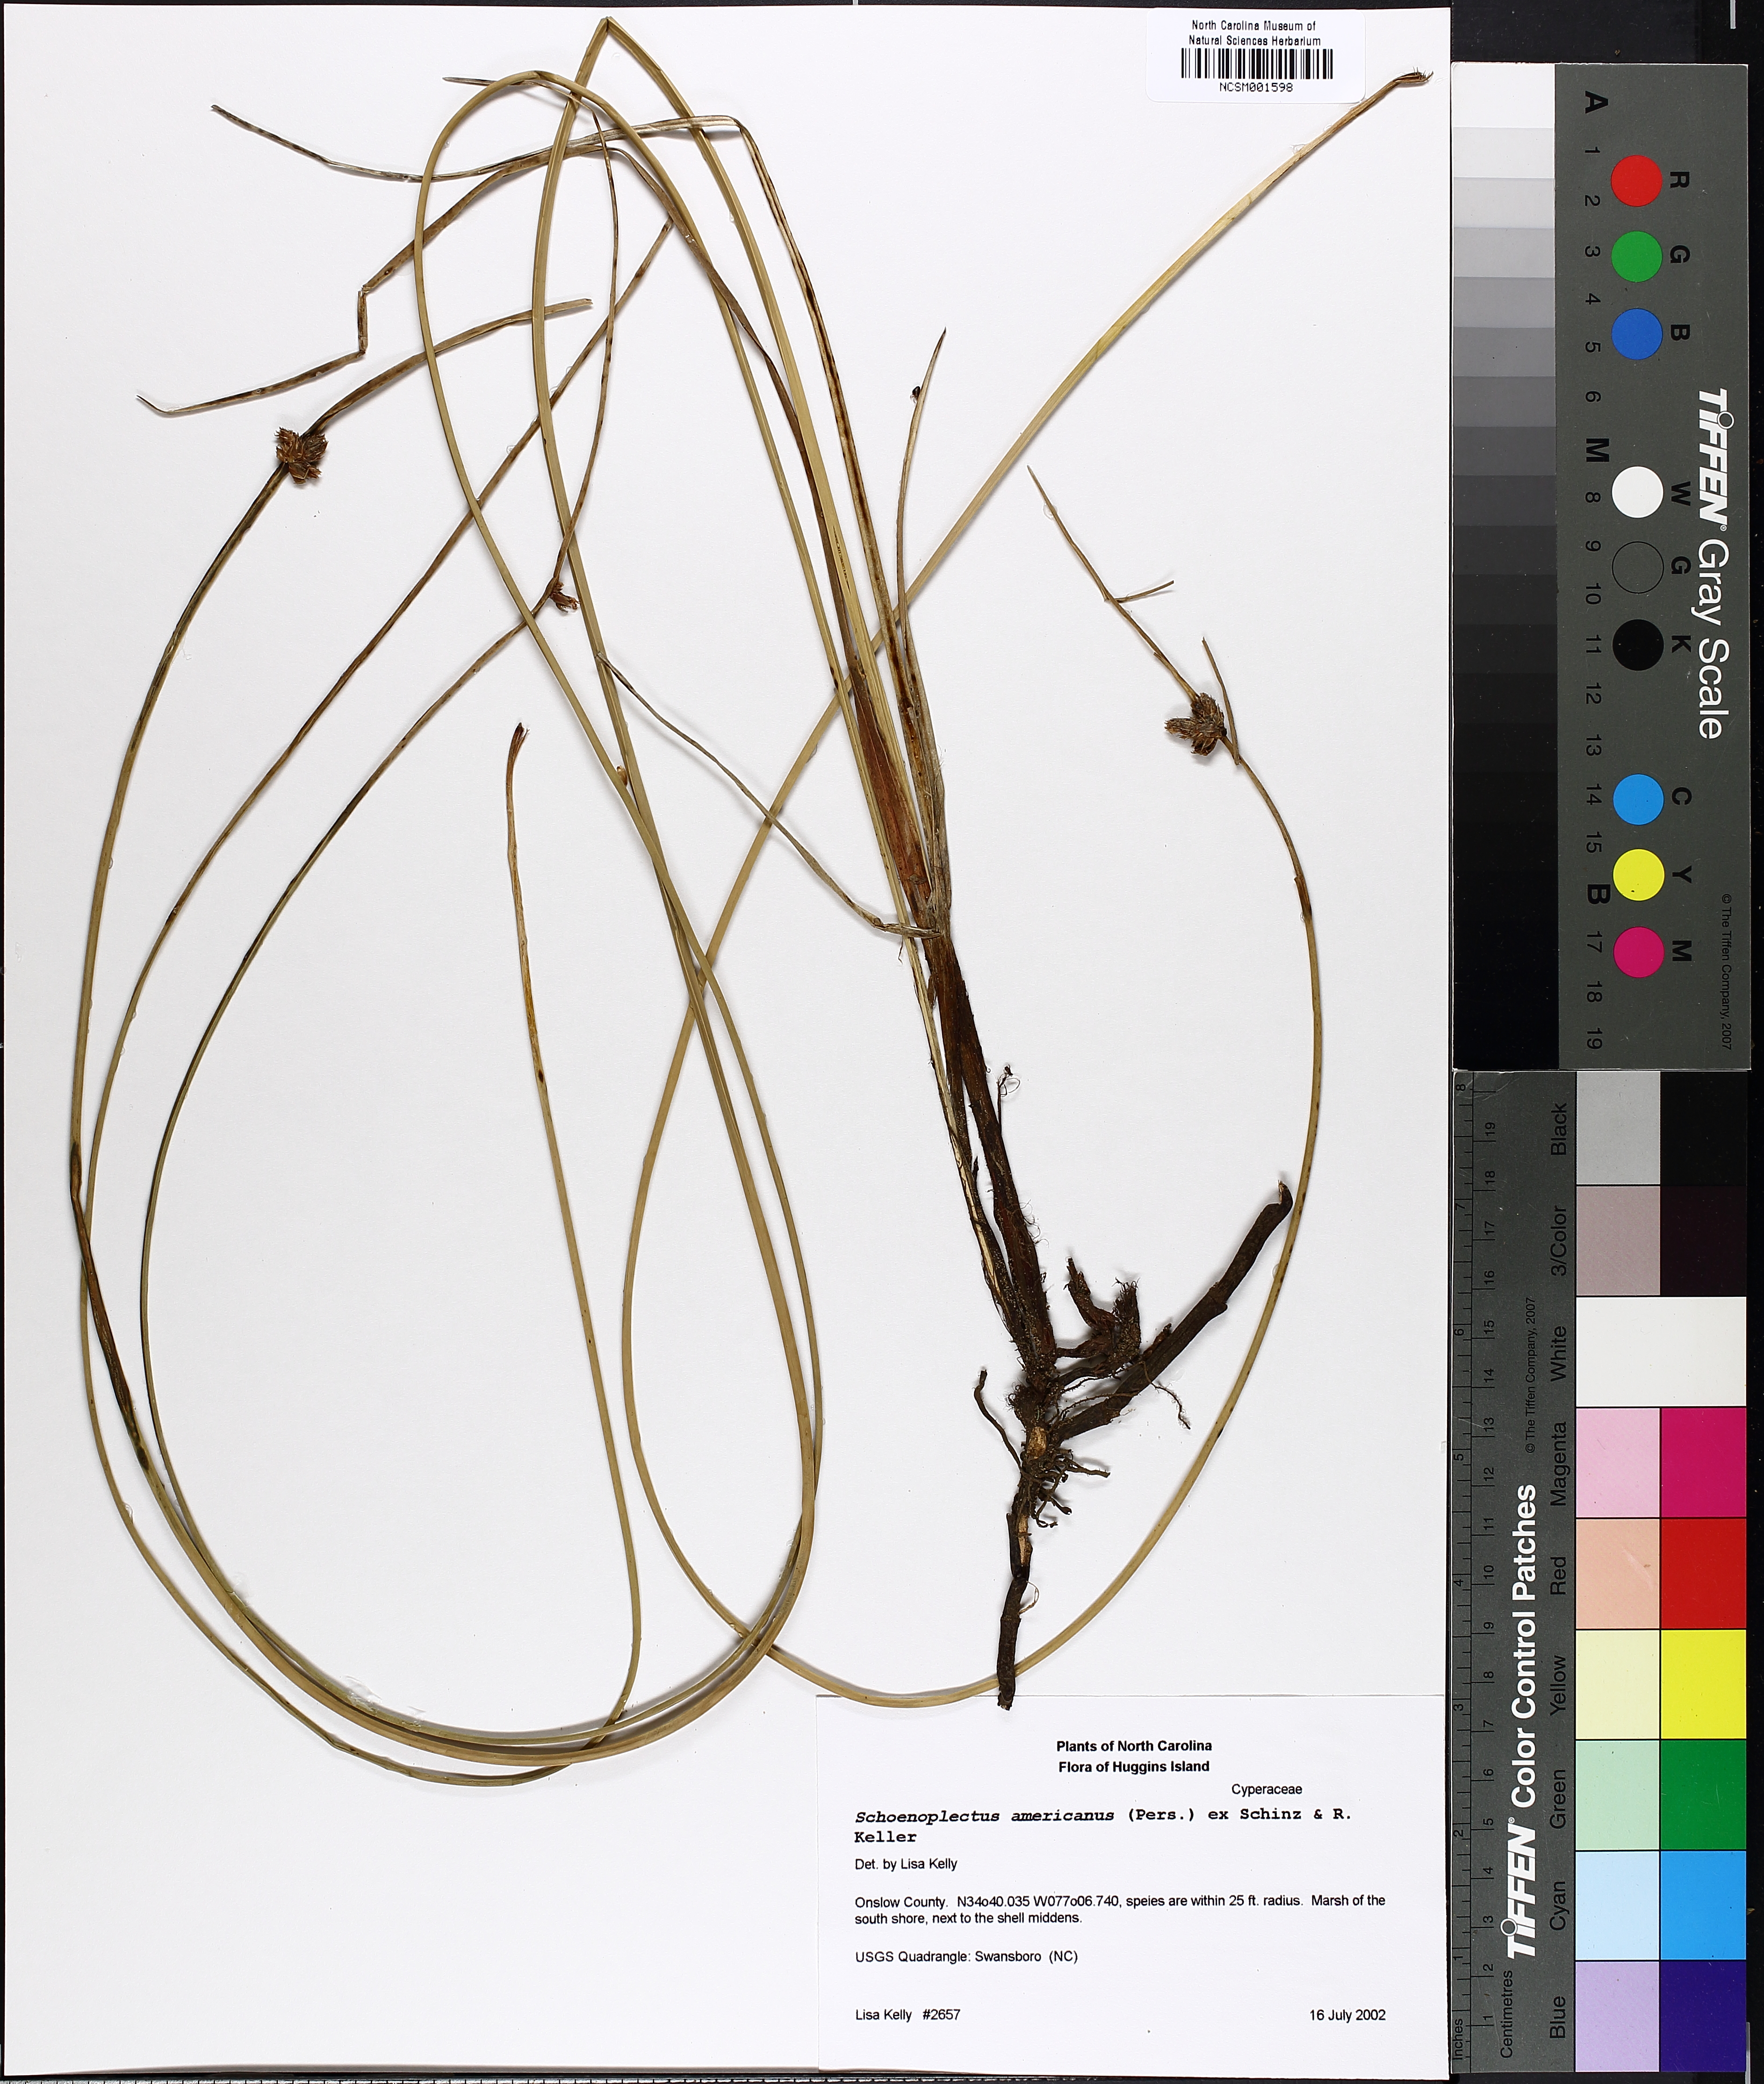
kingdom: Plantae
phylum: Tracheophyta
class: Liliopsida
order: Poales
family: Cyperaceae
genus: Schoenoplectus
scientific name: Schoenoplectus americanus
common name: American three-square bulrush
